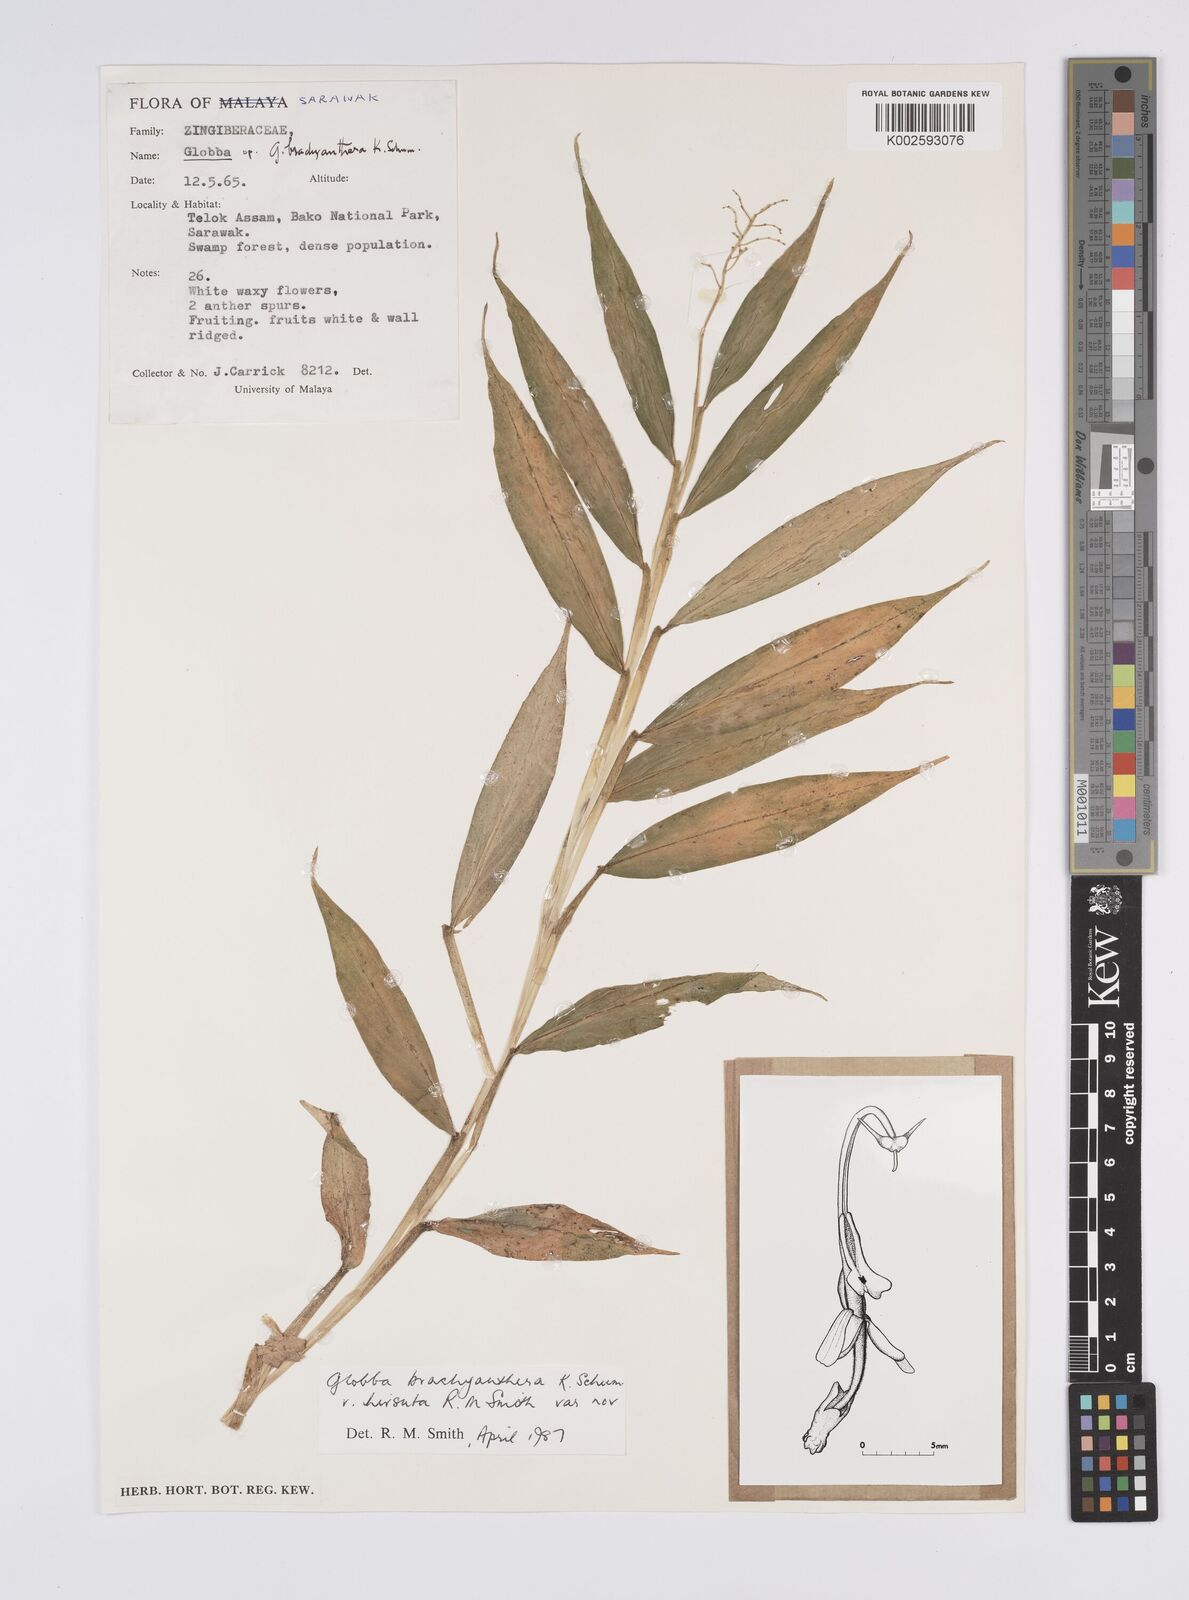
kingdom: Plantae
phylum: Tracheophyta
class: Liliopsida
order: Zingiberales
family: Zingiberaceae
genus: Globba
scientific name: Globba brachyanthera
